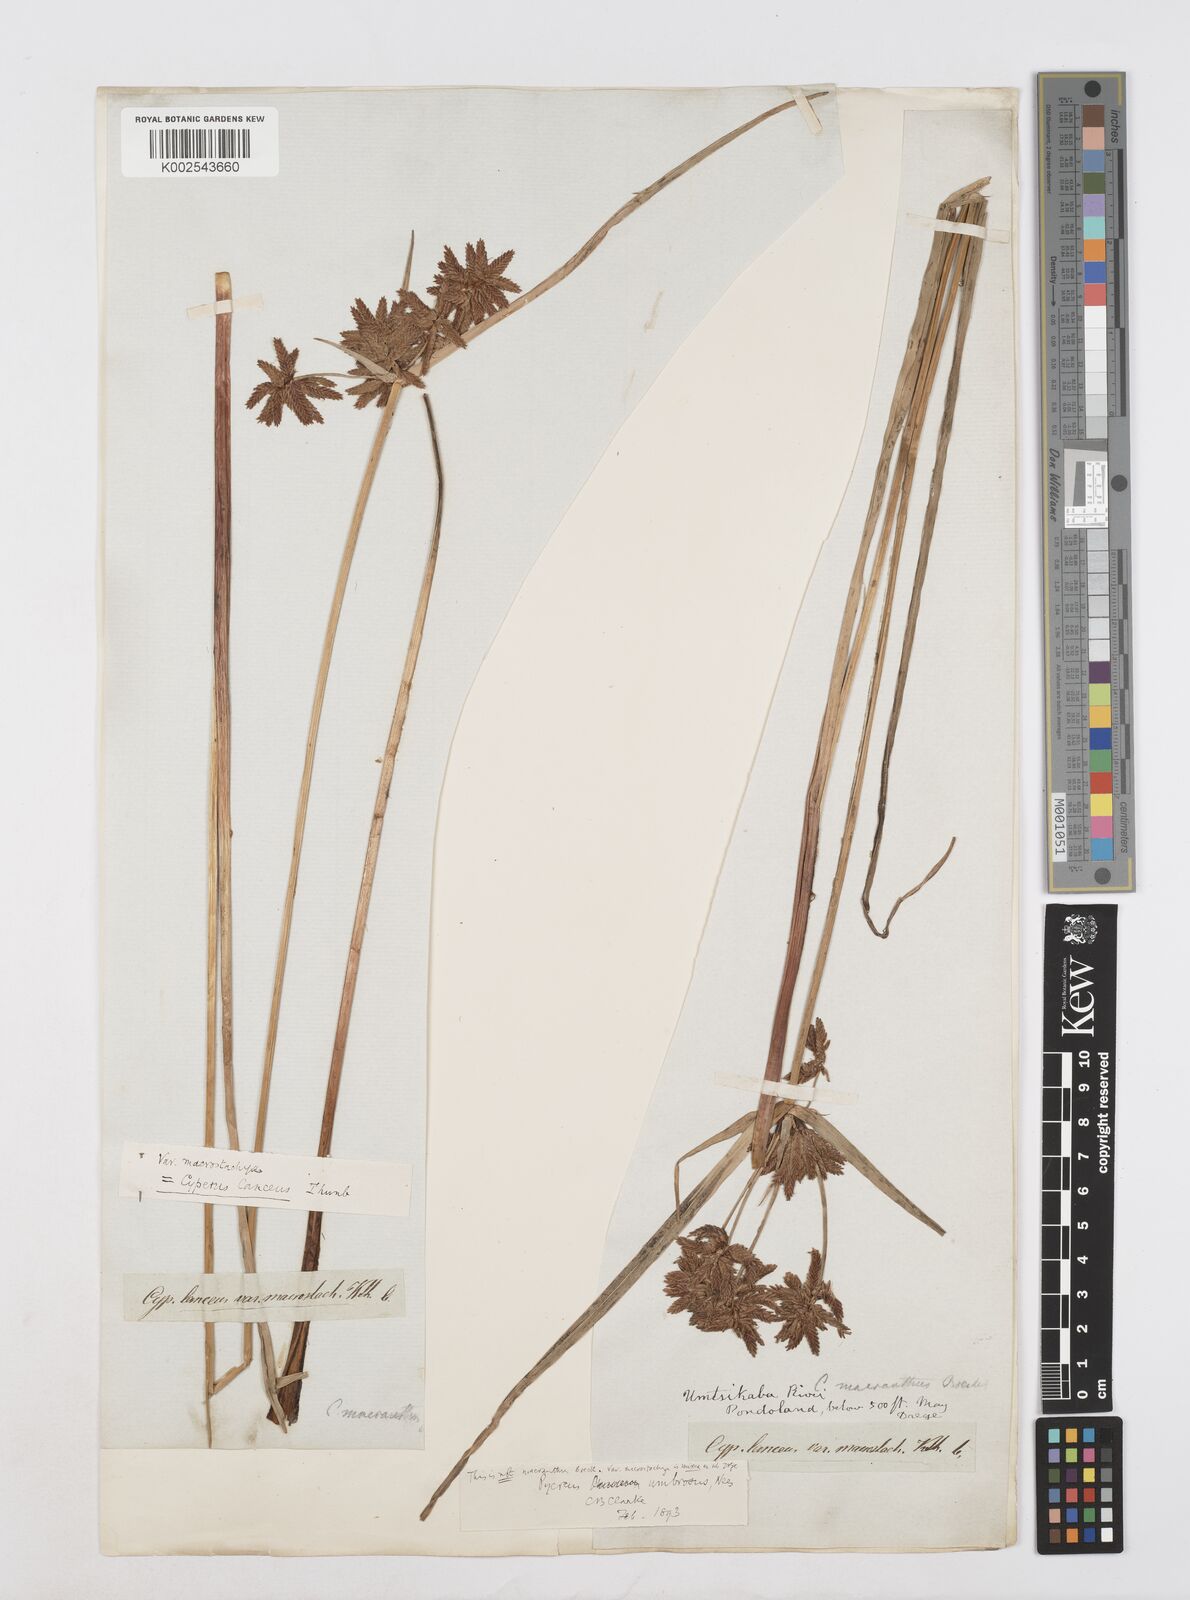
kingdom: Plantae
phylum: Tracheophyta
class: Liliopsida
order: Poales
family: Cyperaceae
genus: Cyperus
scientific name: Cyperus nitidus
